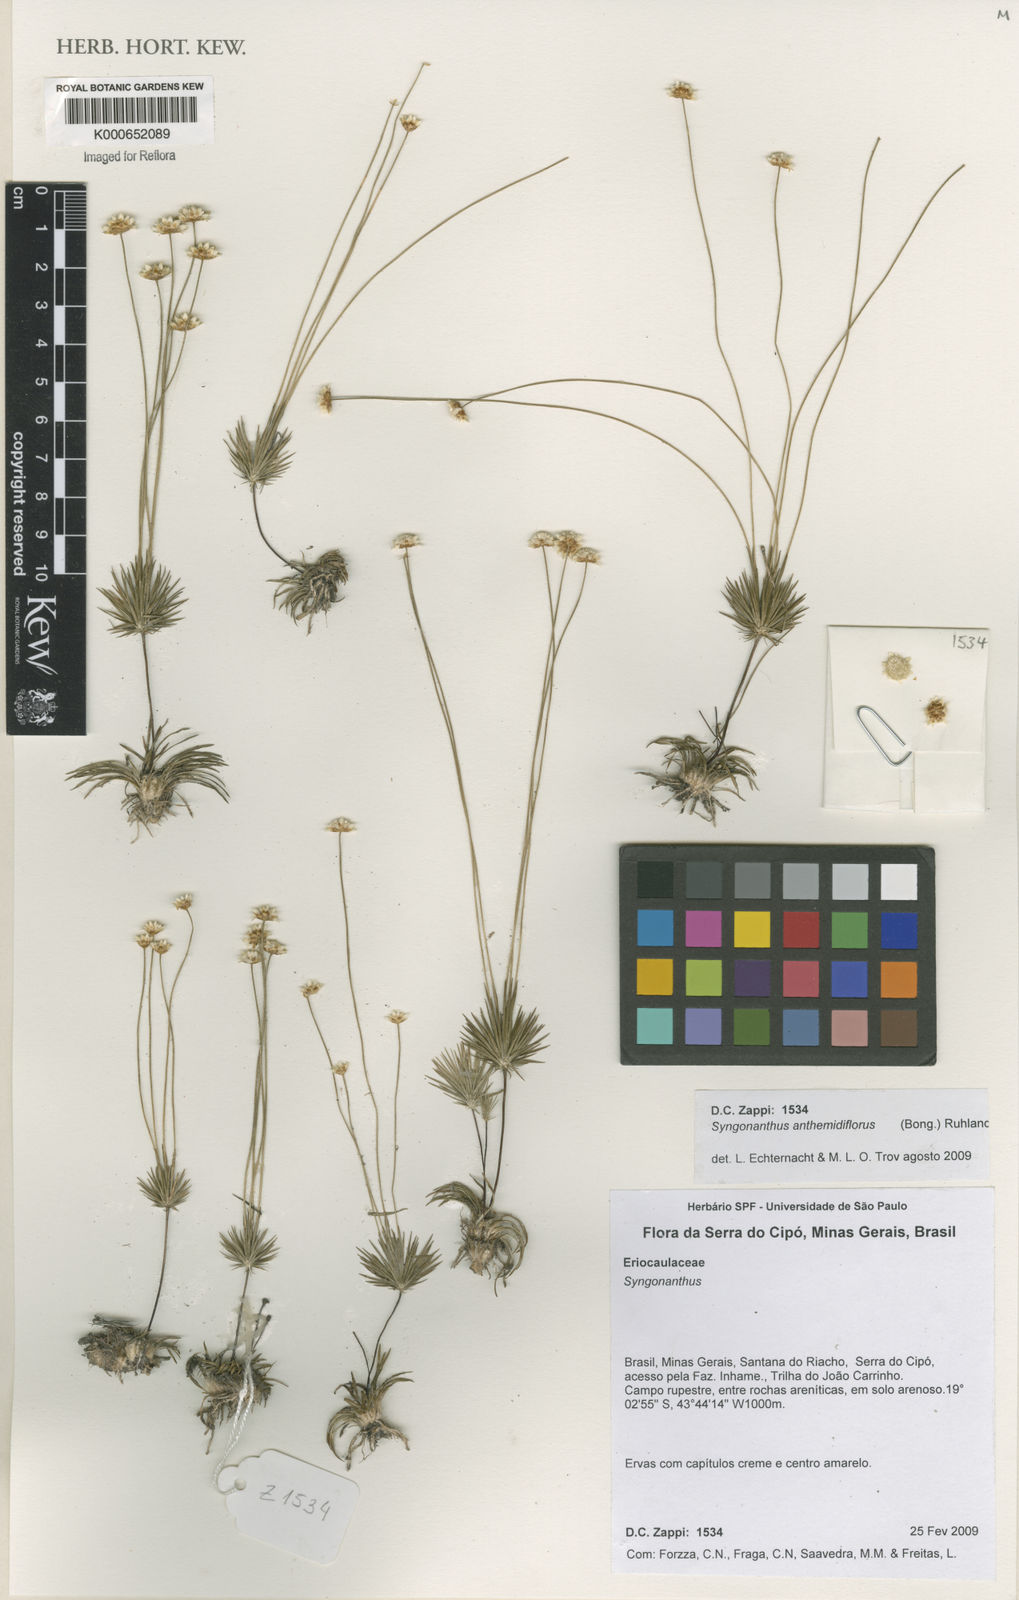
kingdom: Plantae
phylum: Tracheophyta
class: Liliopsida
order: Poales
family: Eriocaulaceae
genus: Syngonanthus
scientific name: Syngonanthus anthemidiflorus
